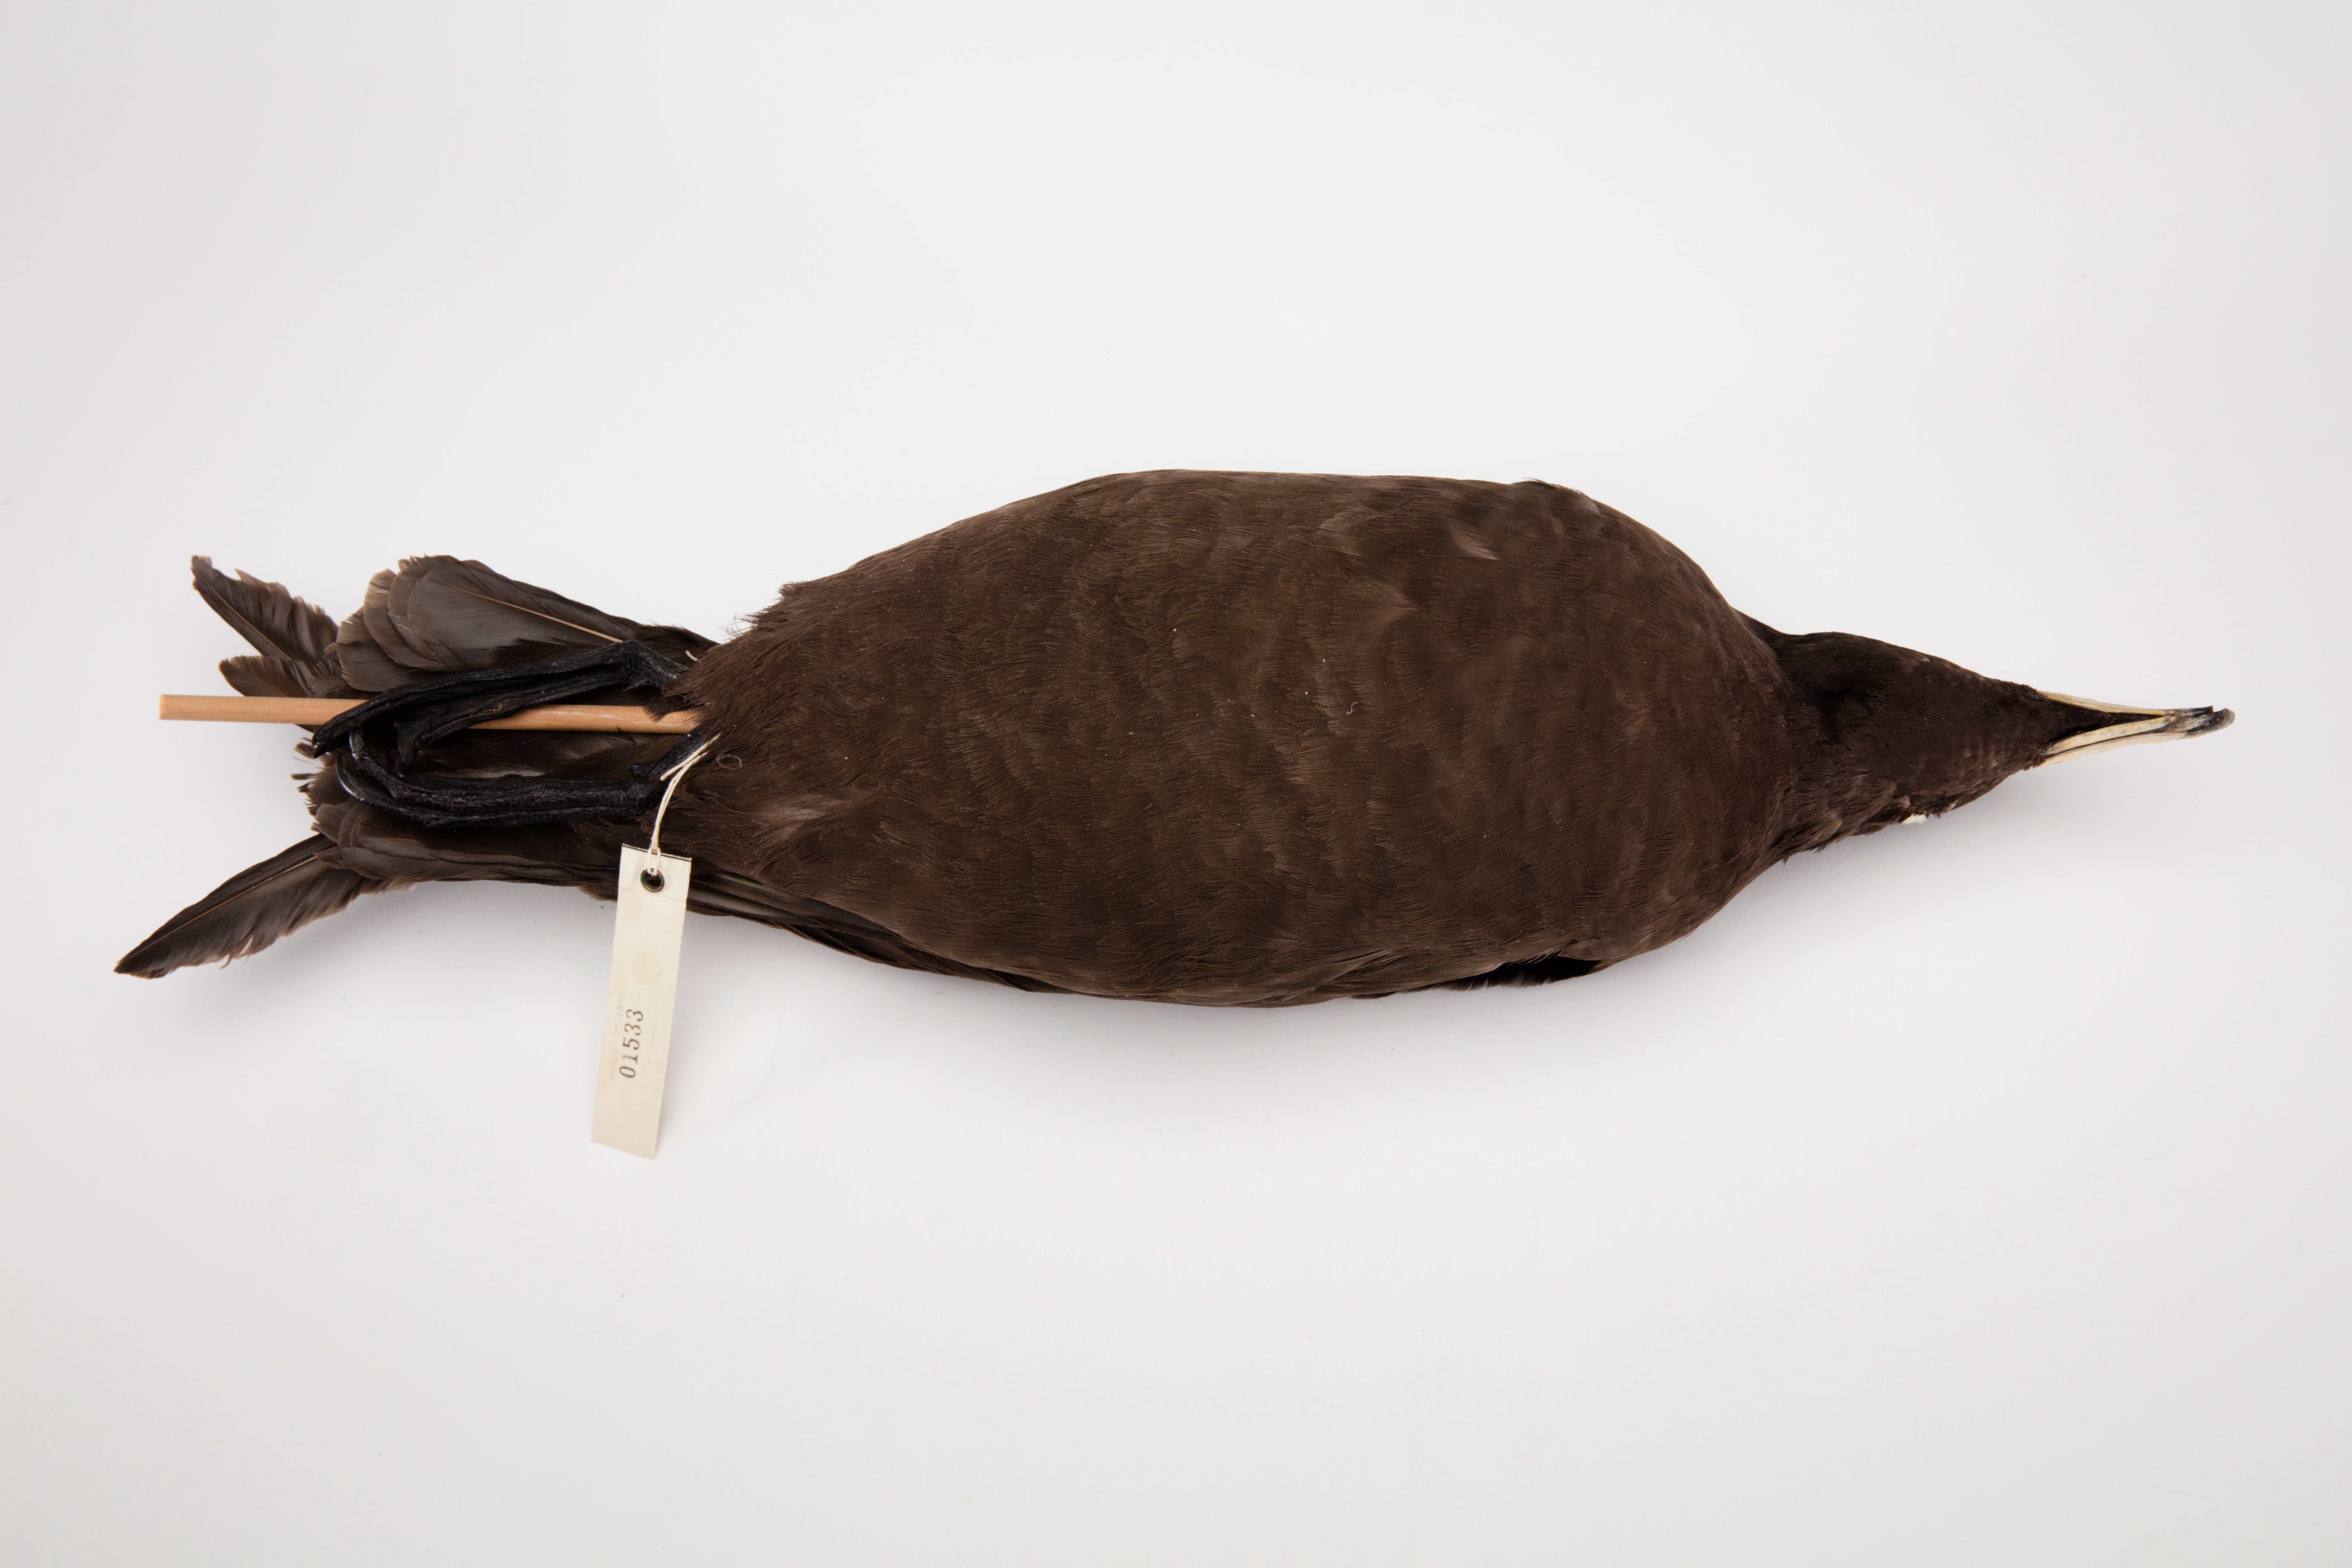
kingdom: Animalia
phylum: Chordata
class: Aves
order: Procellariiformes
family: Procellariidae
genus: Procellaria
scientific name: Procellaria parkinsoni
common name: Black petrel
